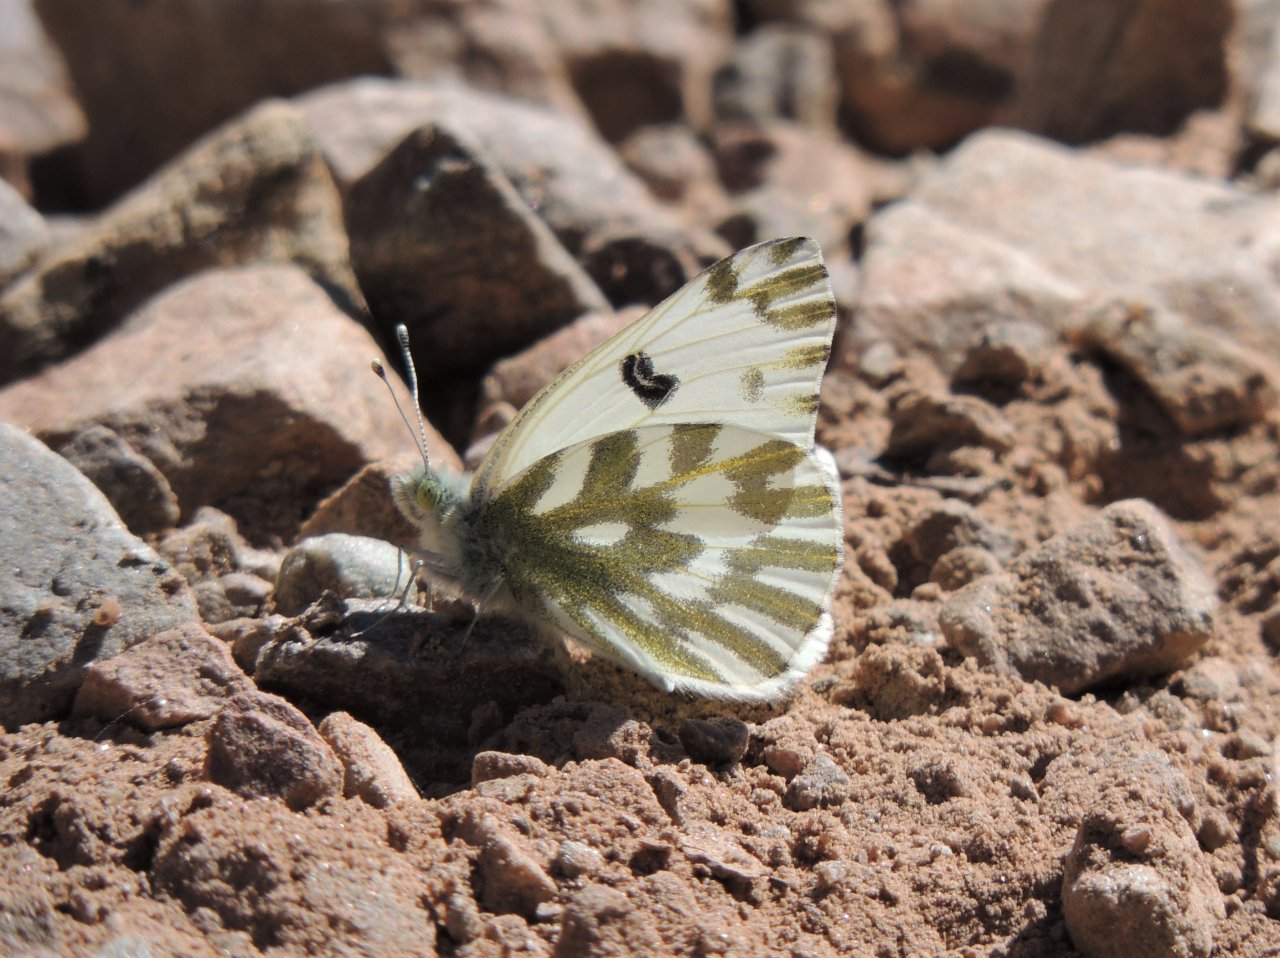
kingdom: Animalia
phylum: Arthropoda
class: Insecta
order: Lepidoptera
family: Pieridae
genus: Pontia
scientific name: Pontia beckerii
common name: Becker's White
